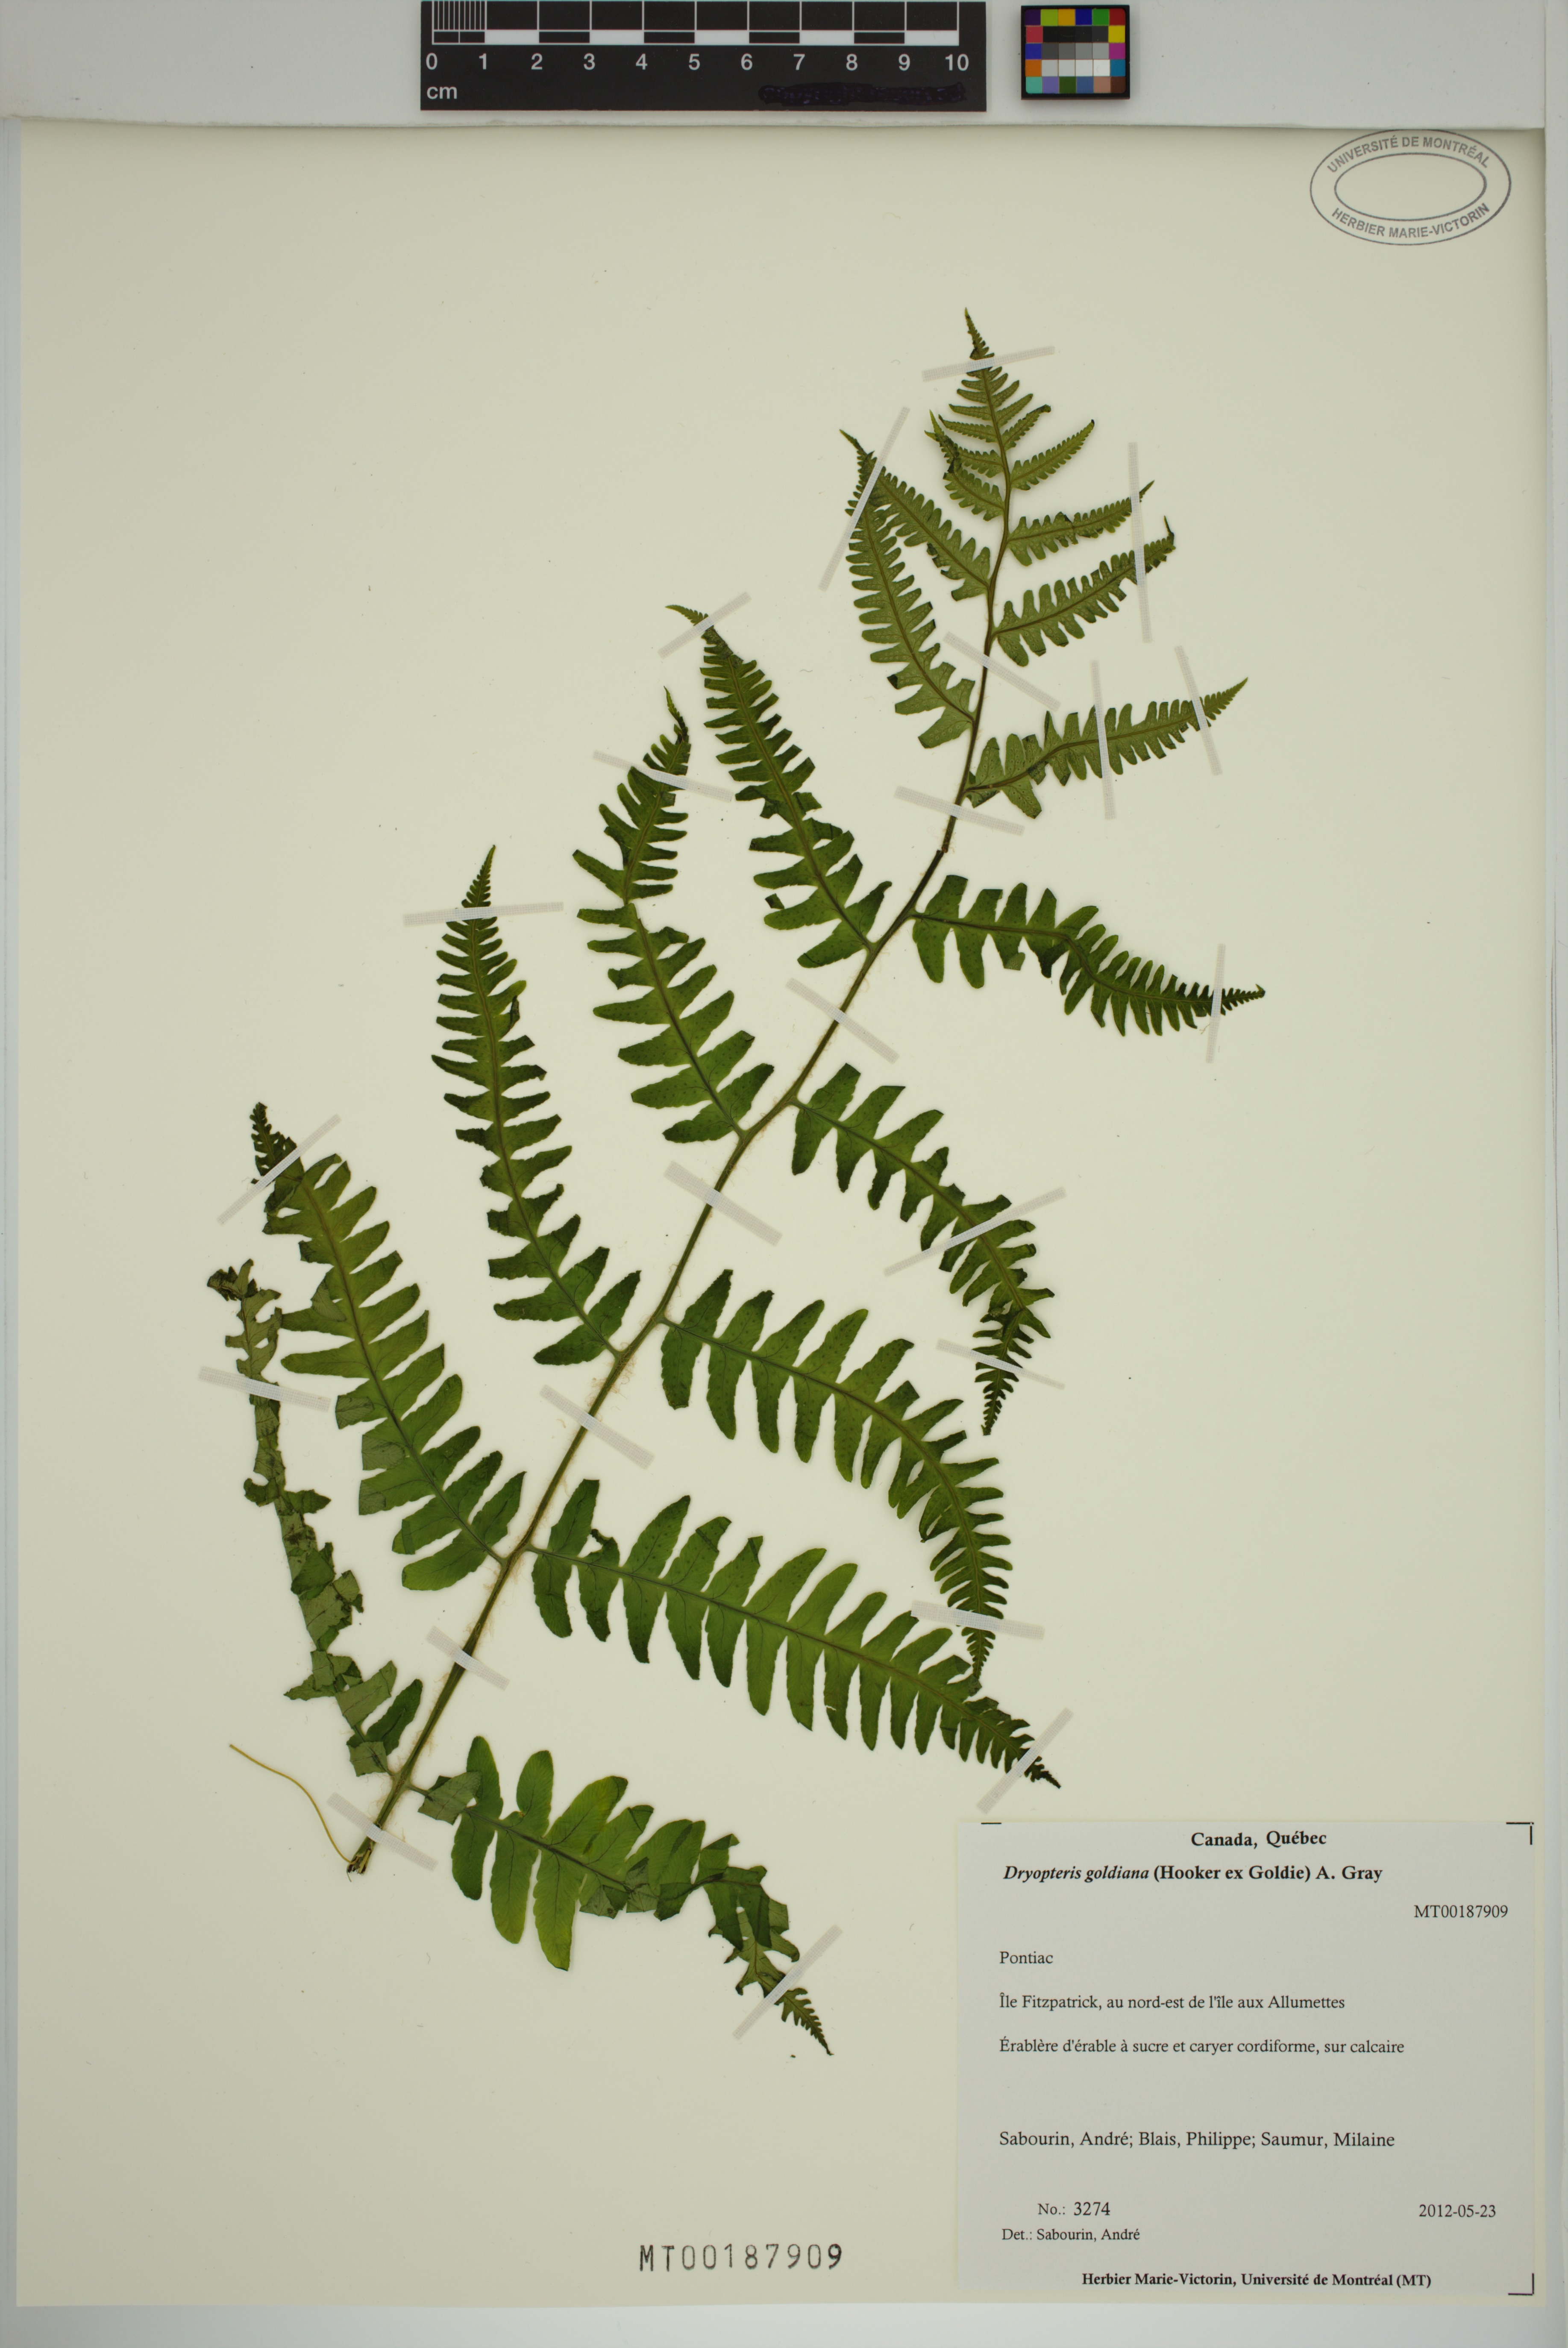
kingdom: Plantae
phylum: Tracheophyta
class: Polypodiopsida
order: Polypodiales
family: Dryopteridaceae
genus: Dryopteris
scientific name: Dryopteris goldieana
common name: Goldie's fern
